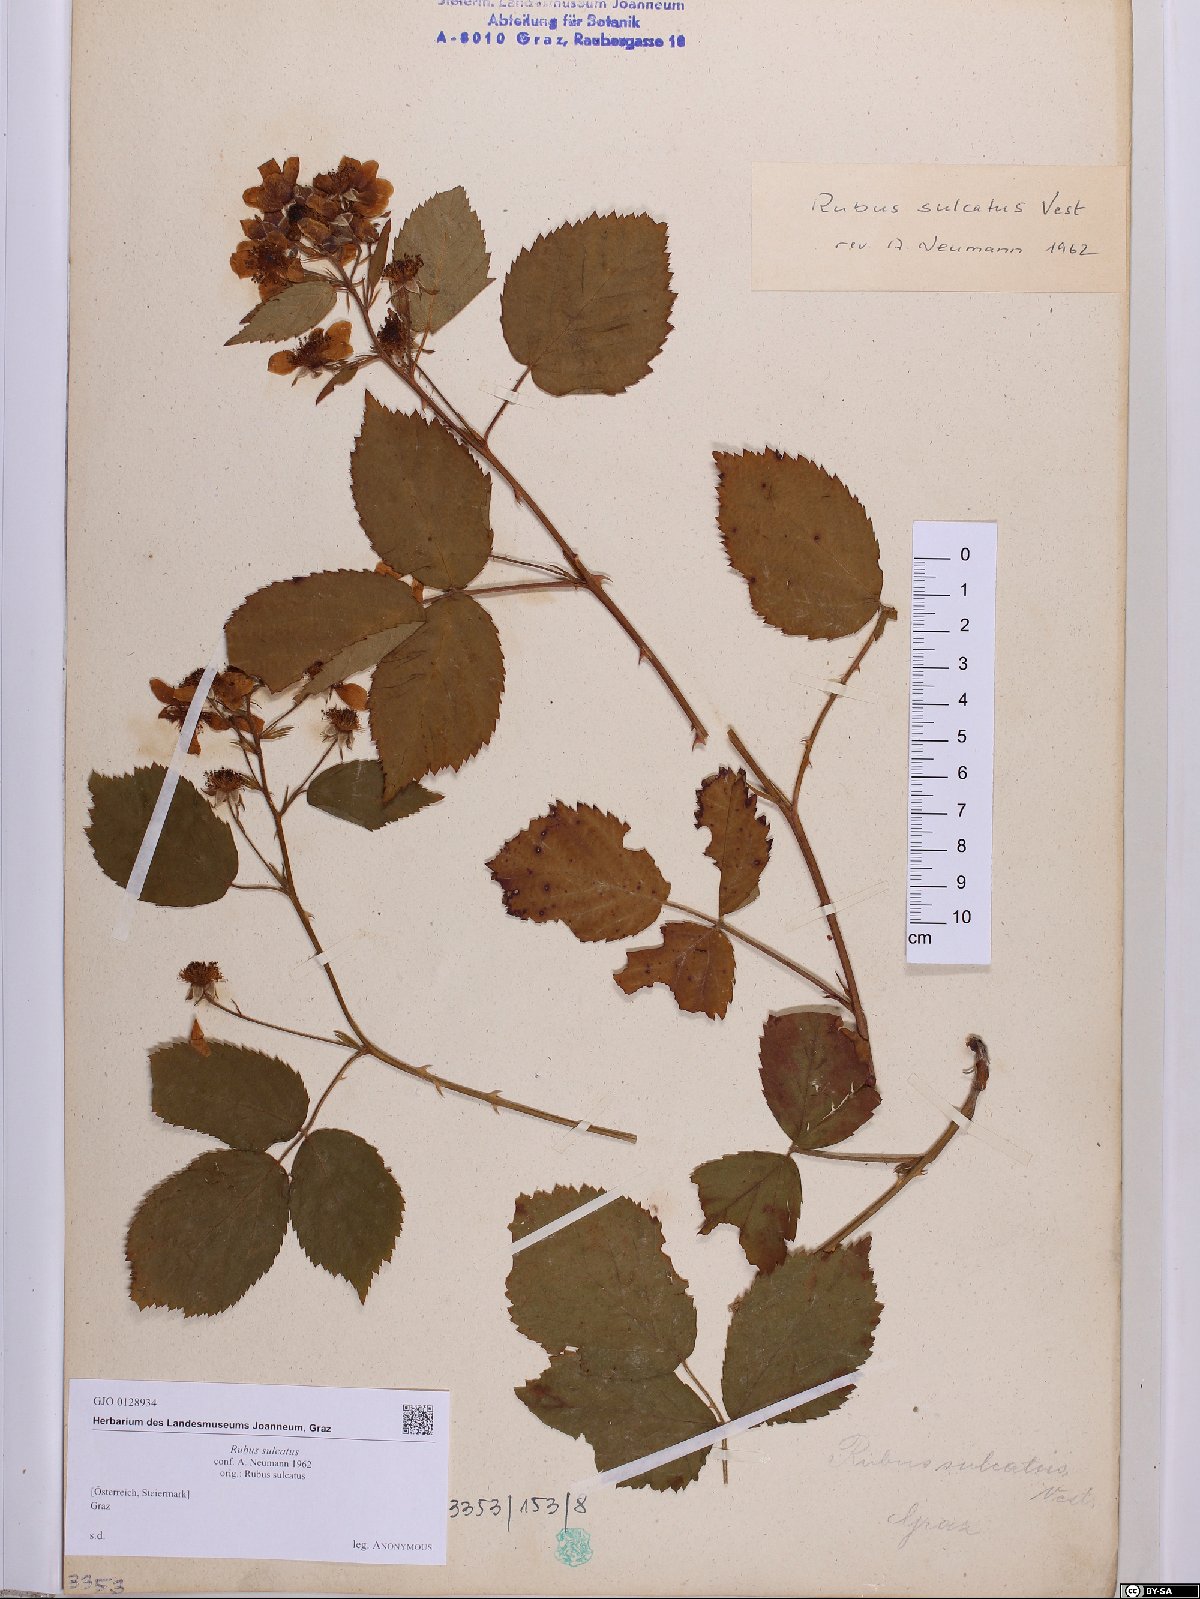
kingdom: Plantae
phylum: Tracheophyta
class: Magnoliopsida
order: Rosales
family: Rosaceae
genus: Rubus
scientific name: Rubus sulcatus
